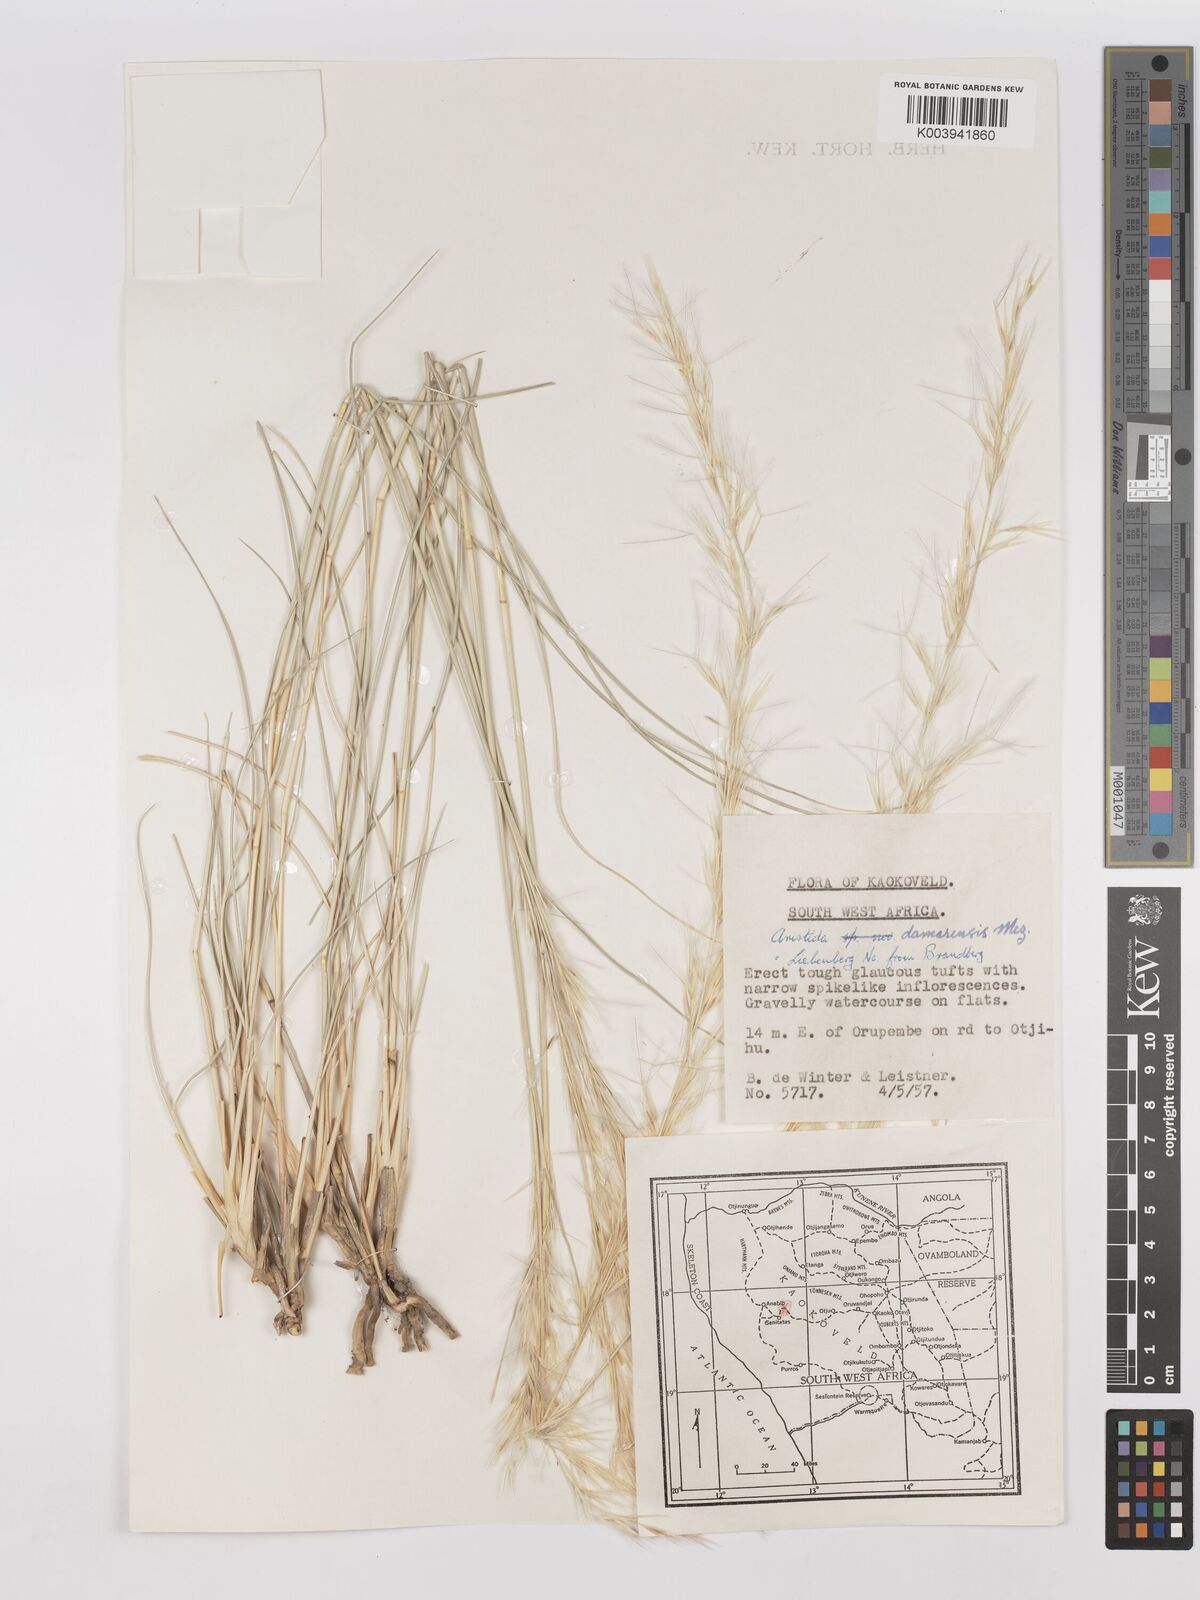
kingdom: Plantae
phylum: Tracheophyta
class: Liliopsida
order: Poales
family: Poaceae
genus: Stipagrostis
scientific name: Stipagrostis damarensis
